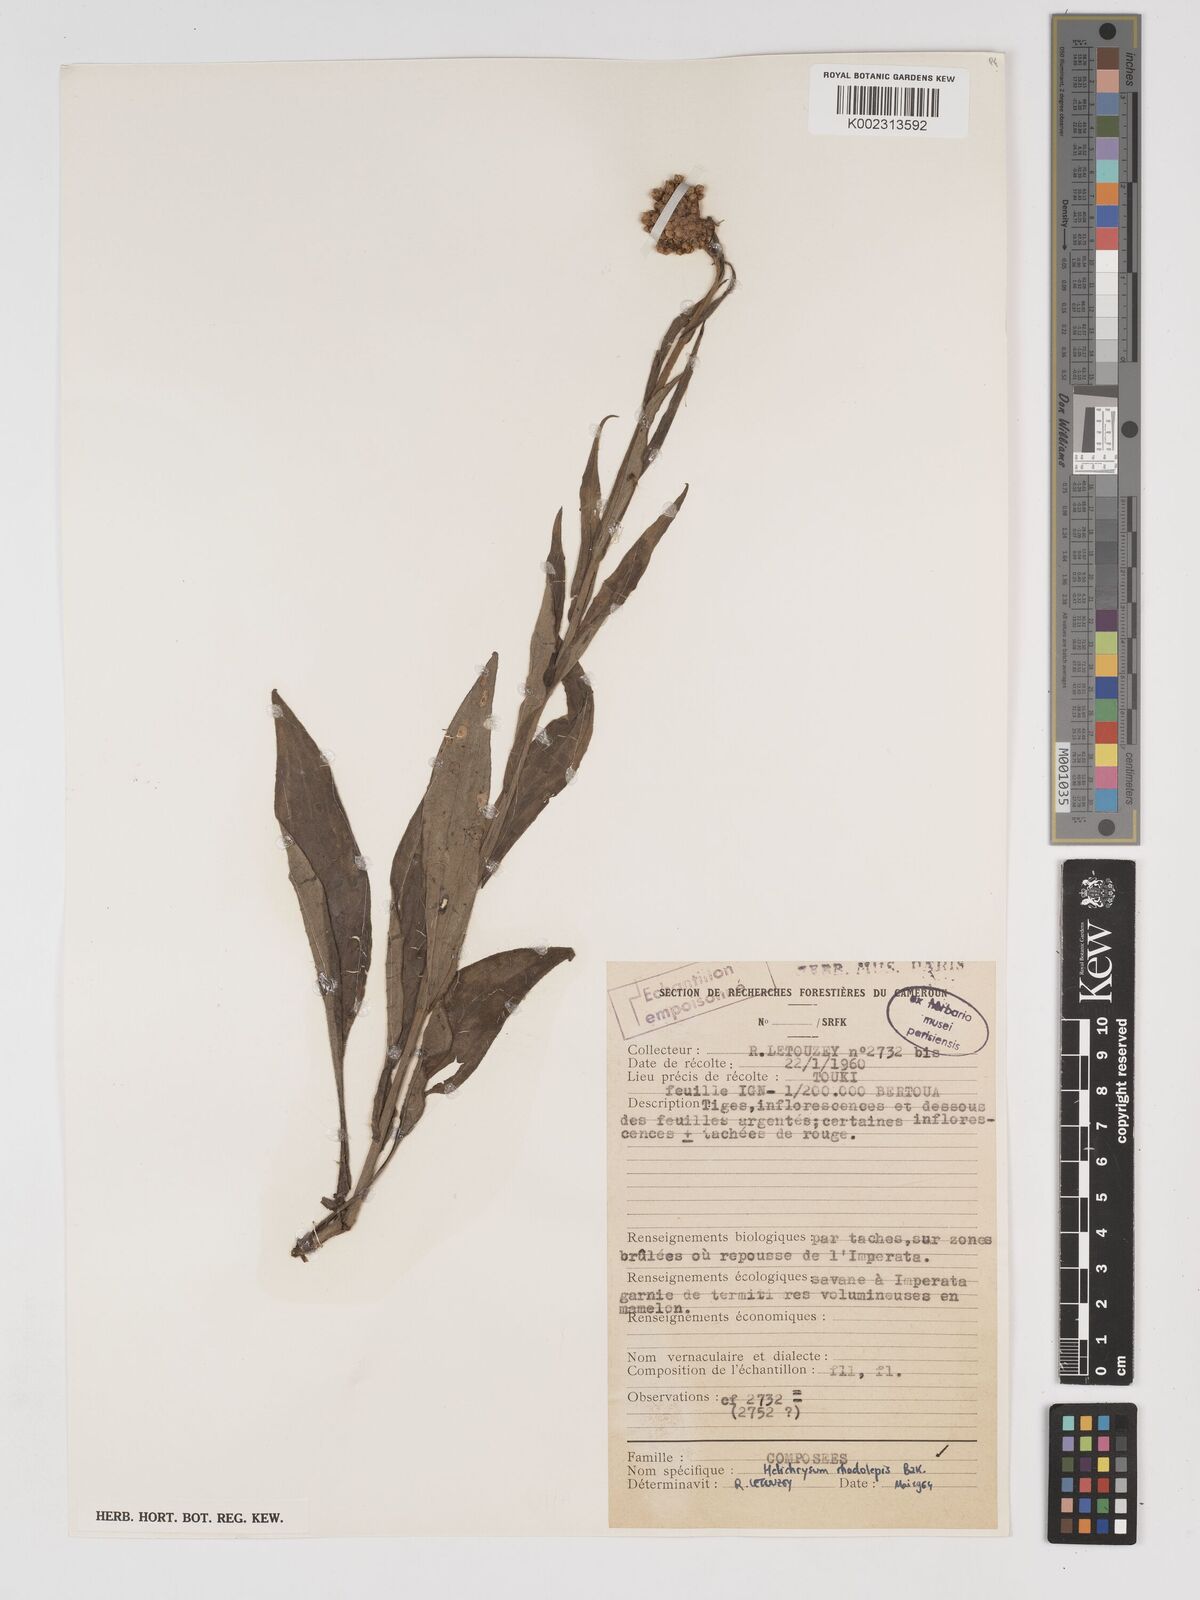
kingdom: Plantae
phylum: Tracheophyta
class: Magnoliopsida
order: Asterales
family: Asteraceae
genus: Helichrysum
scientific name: Helichrysum nudifolium
